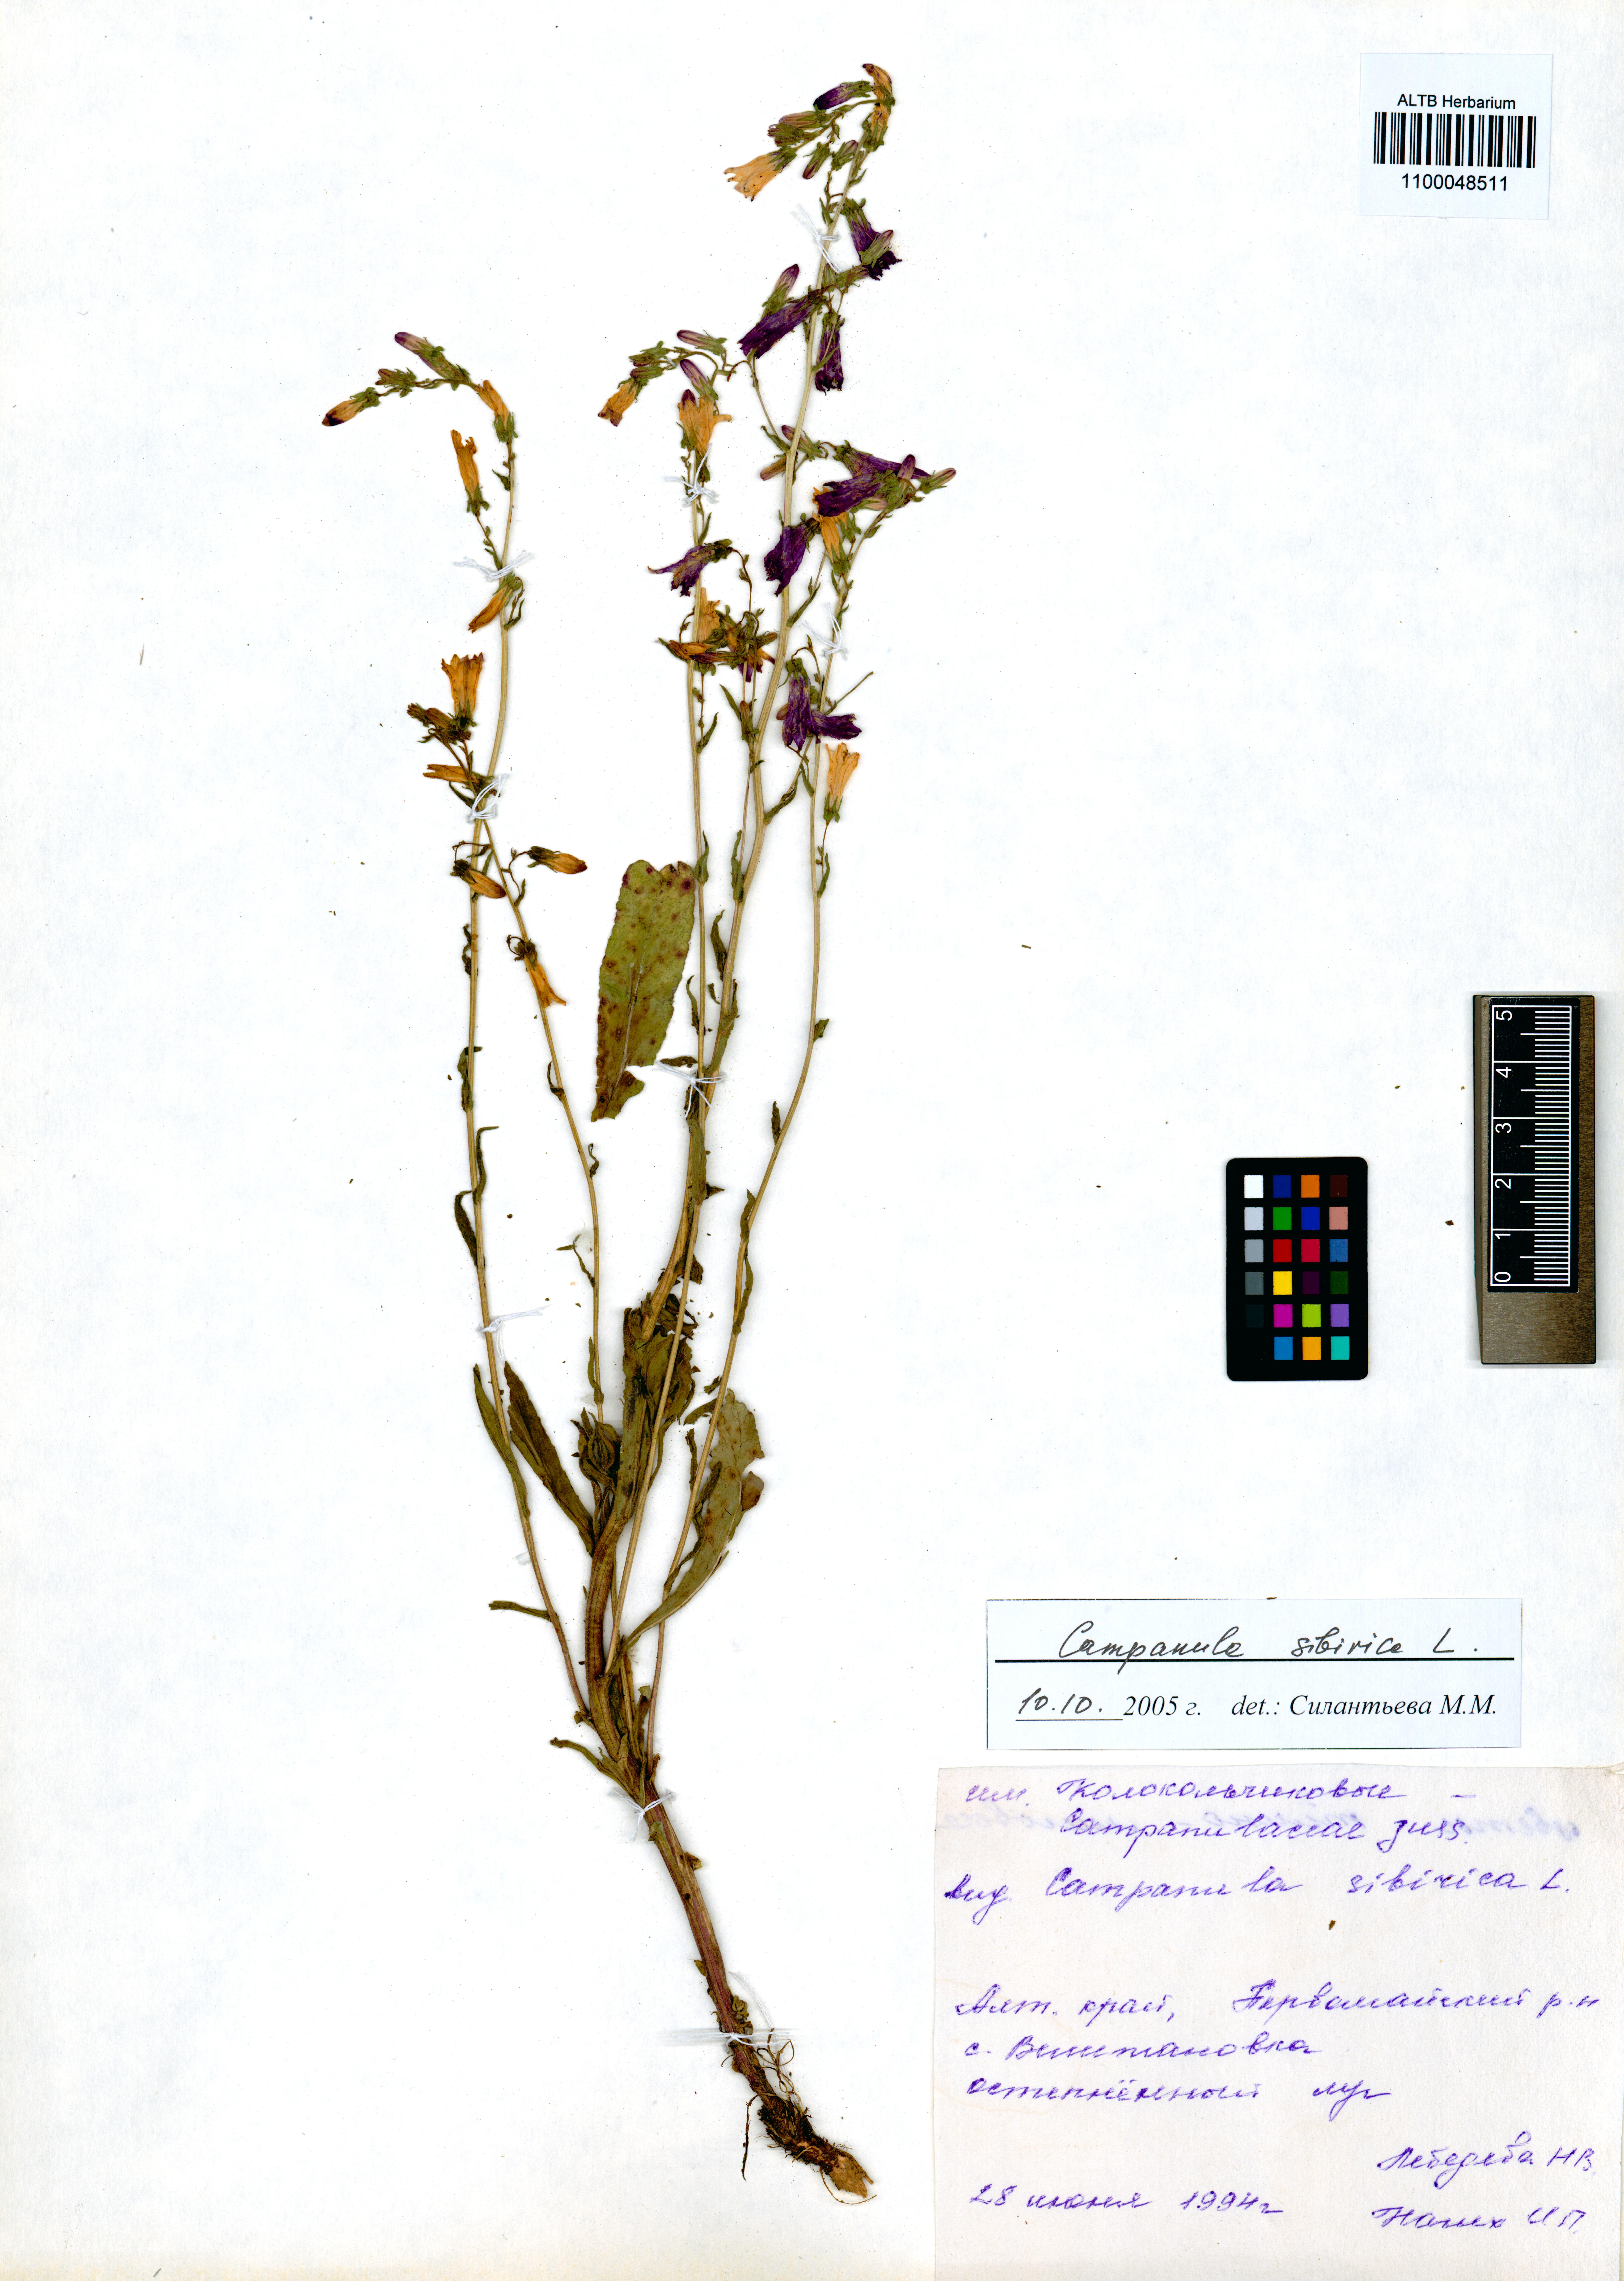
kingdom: Plantae
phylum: Tracheophyta
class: Magnoliopsida
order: Asterales
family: Campanulaceae
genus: Campanula
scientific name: Campanula sibirica
